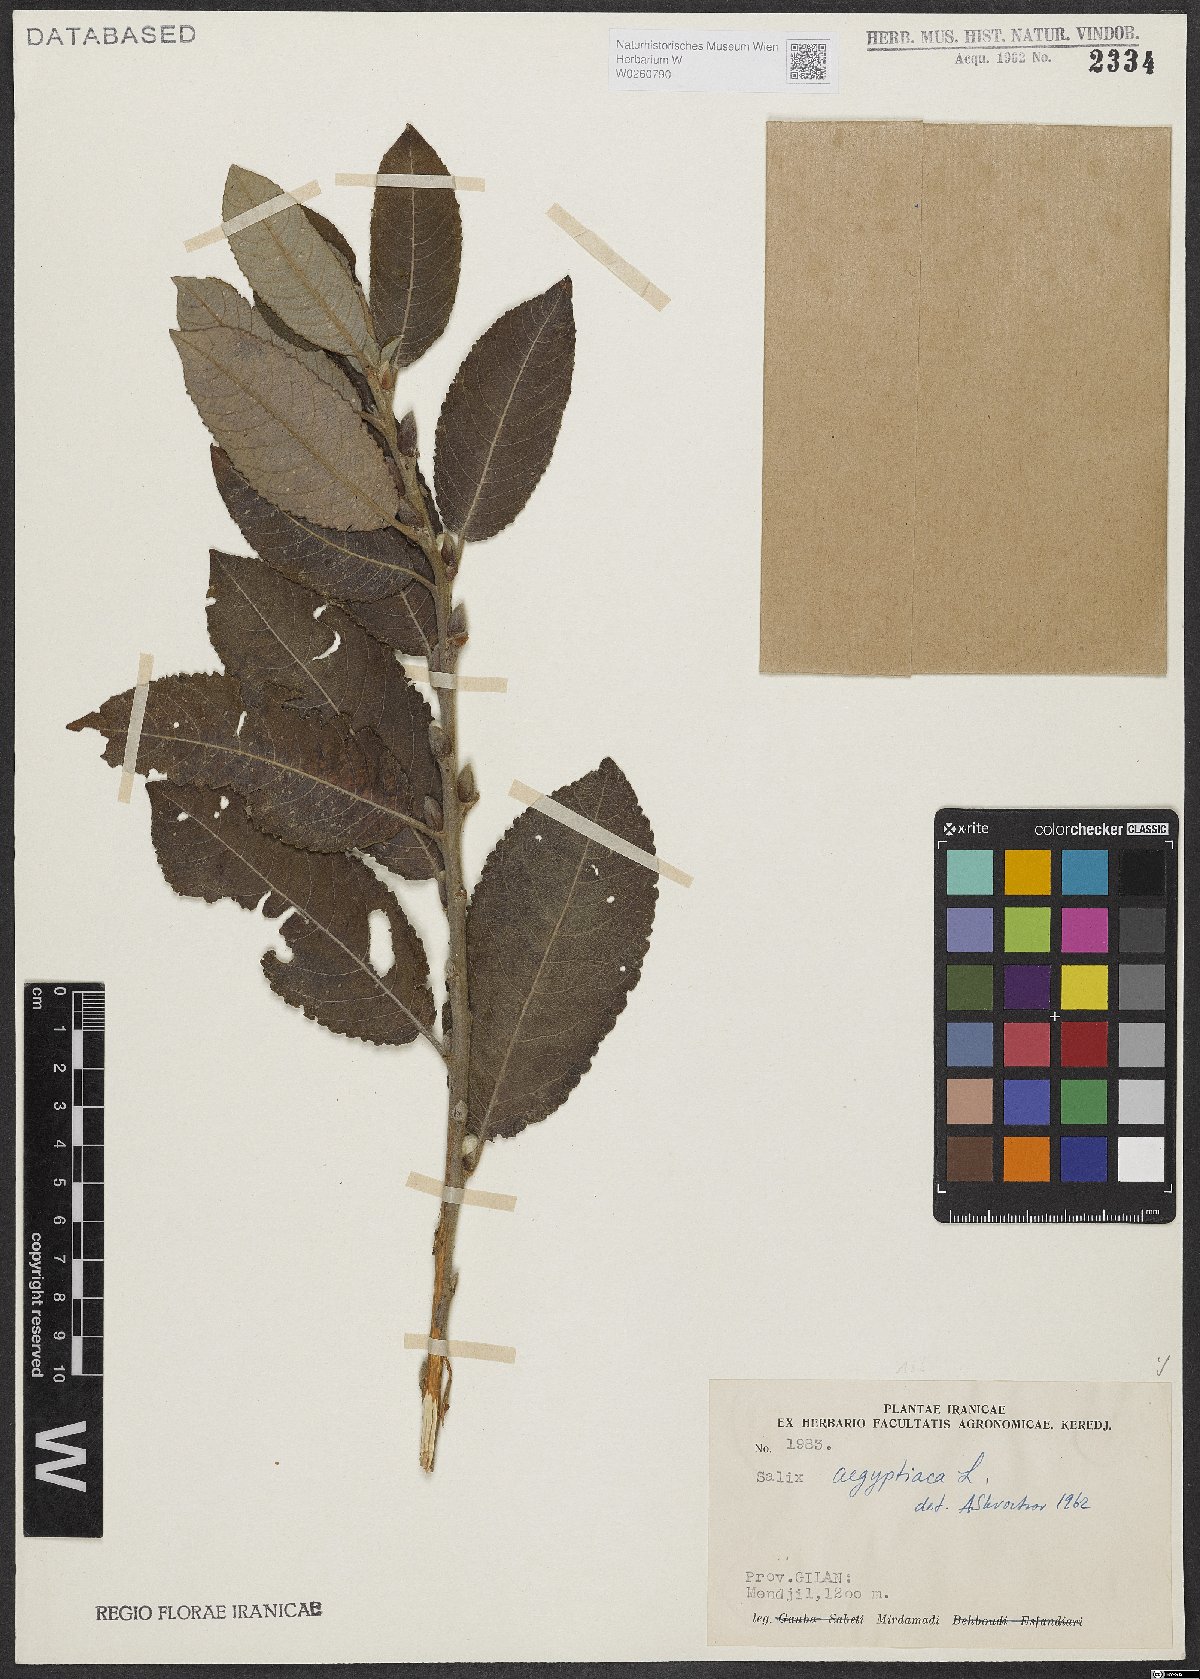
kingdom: Plantae
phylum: Tracheophyta
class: Magnoliopsida
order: Malpighiales
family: Salicaceae
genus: Salix
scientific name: Salix aegyptiaca
